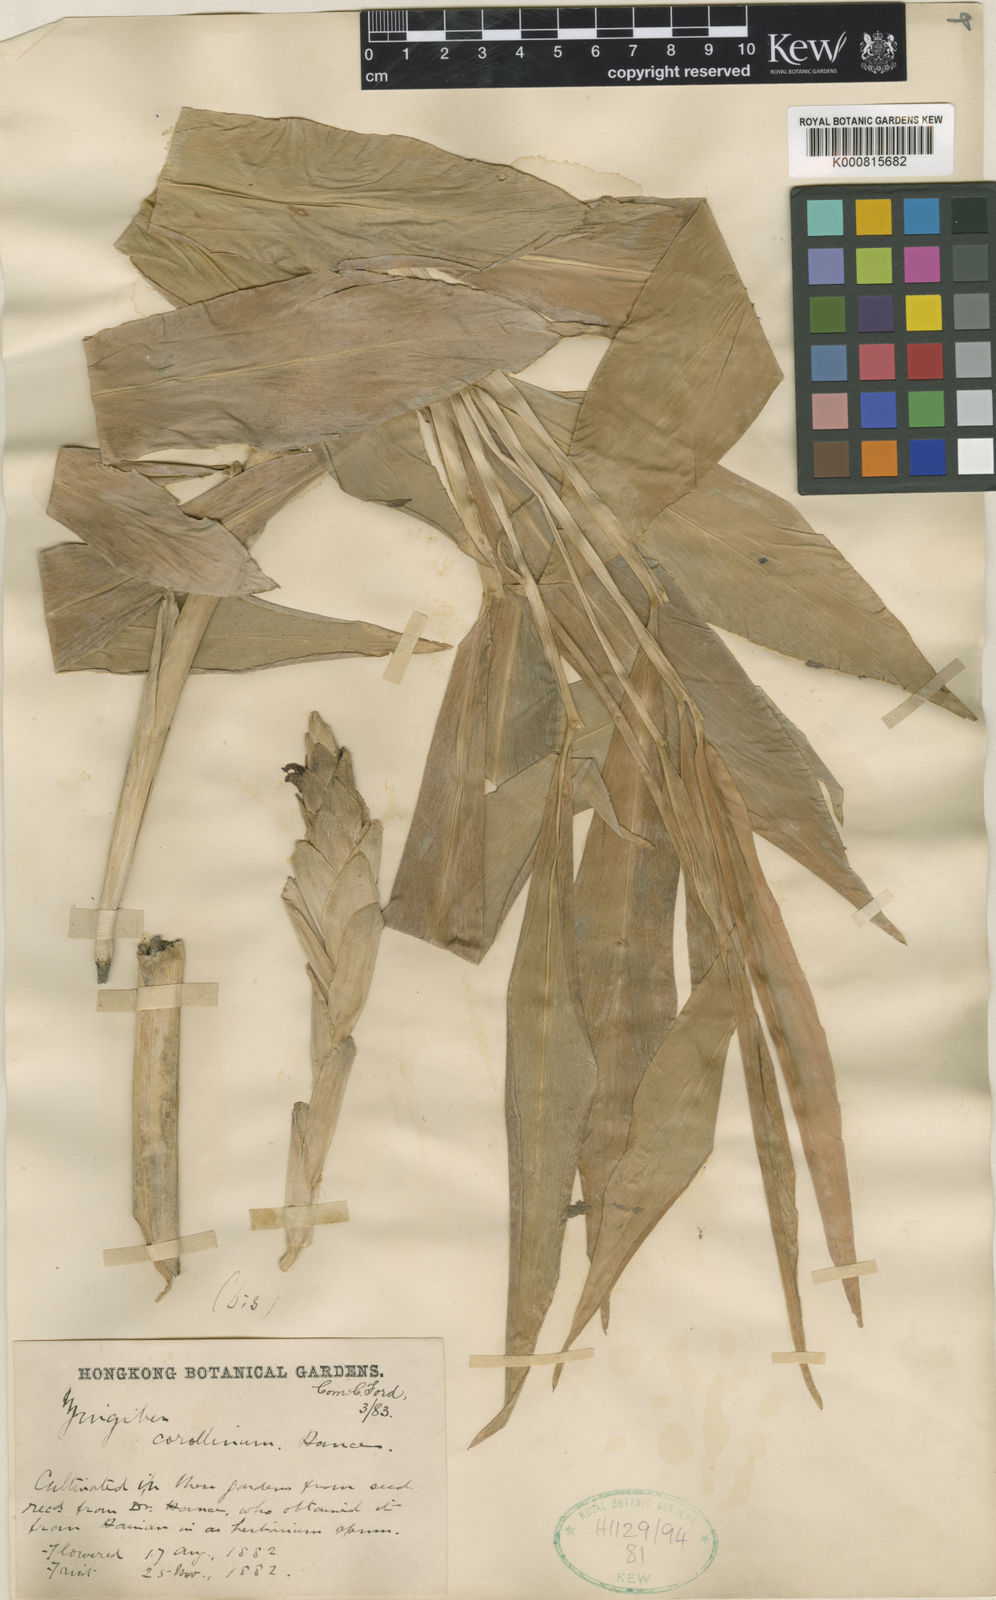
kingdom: Plantae
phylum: Tracheophyta
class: Liliopsida
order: Zingiberales
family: Zingiberaceae
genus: Zingiber
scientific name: Zingiber corallinum
